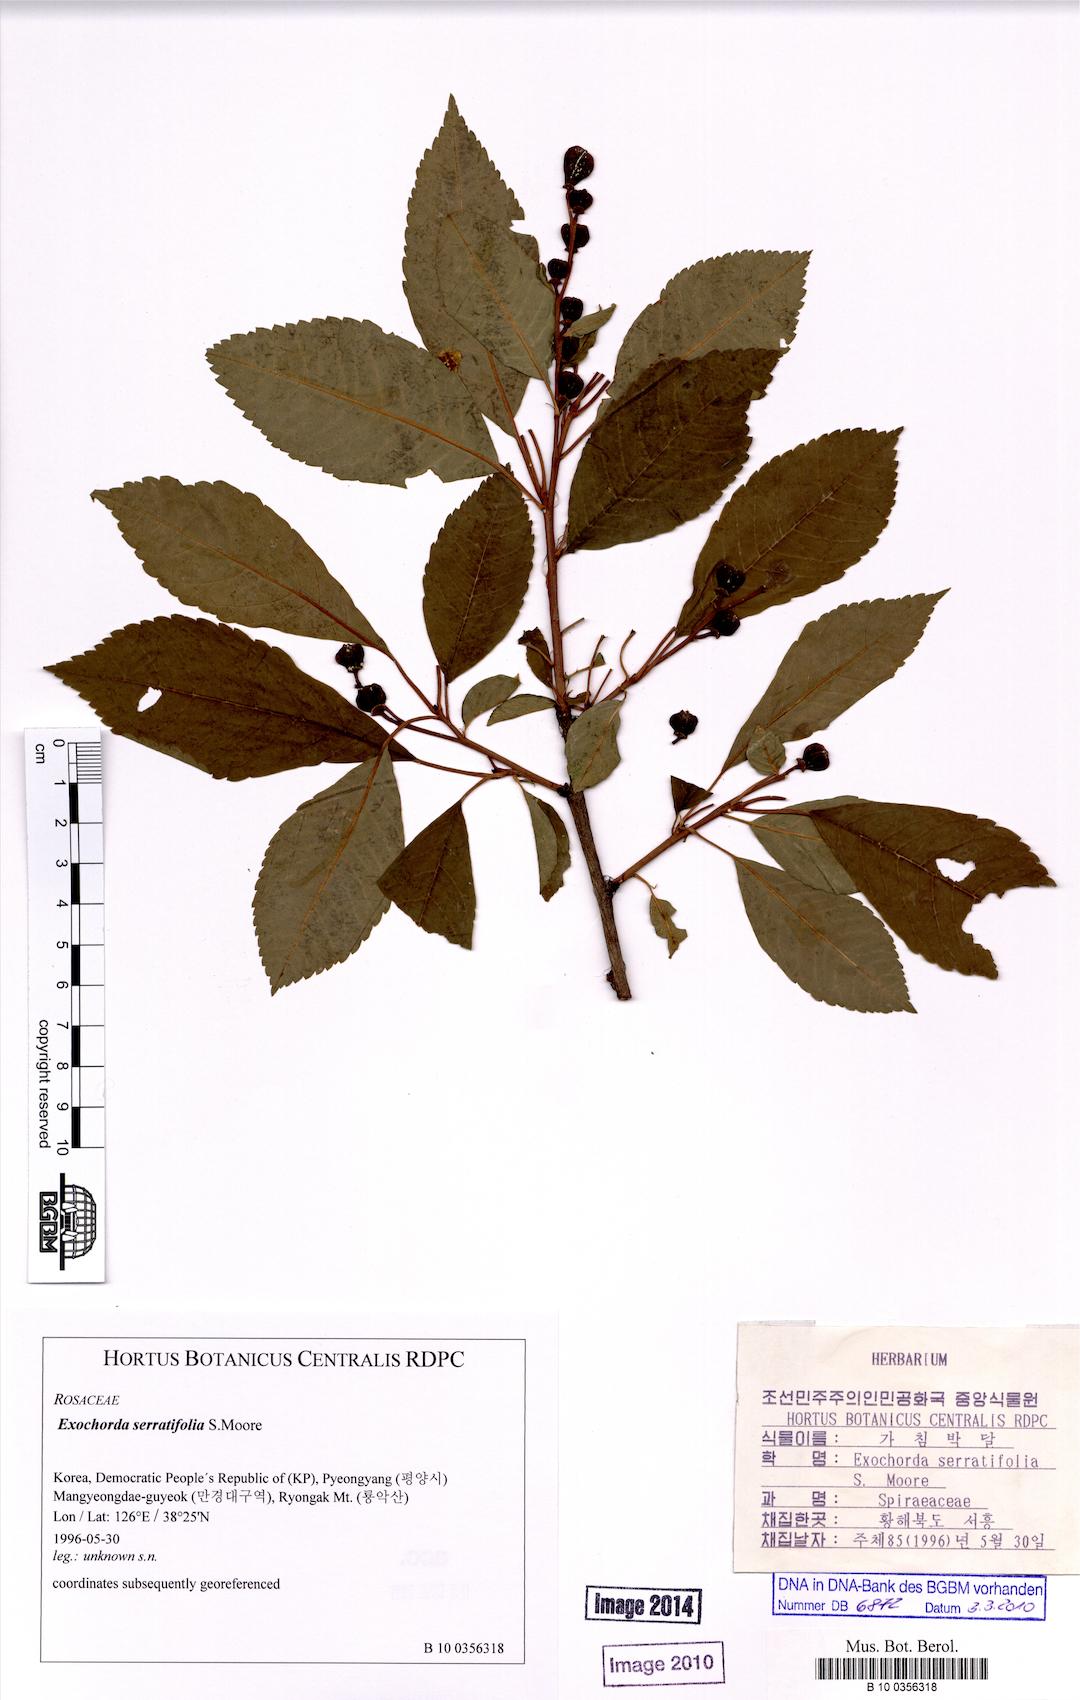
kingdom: Plantae
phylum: Tracheophyta
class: Magnoliopsida
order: Rosales
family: Rosaceae
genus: Exochorda
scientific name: Exochorda racemosa
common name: Common pearlbrush
